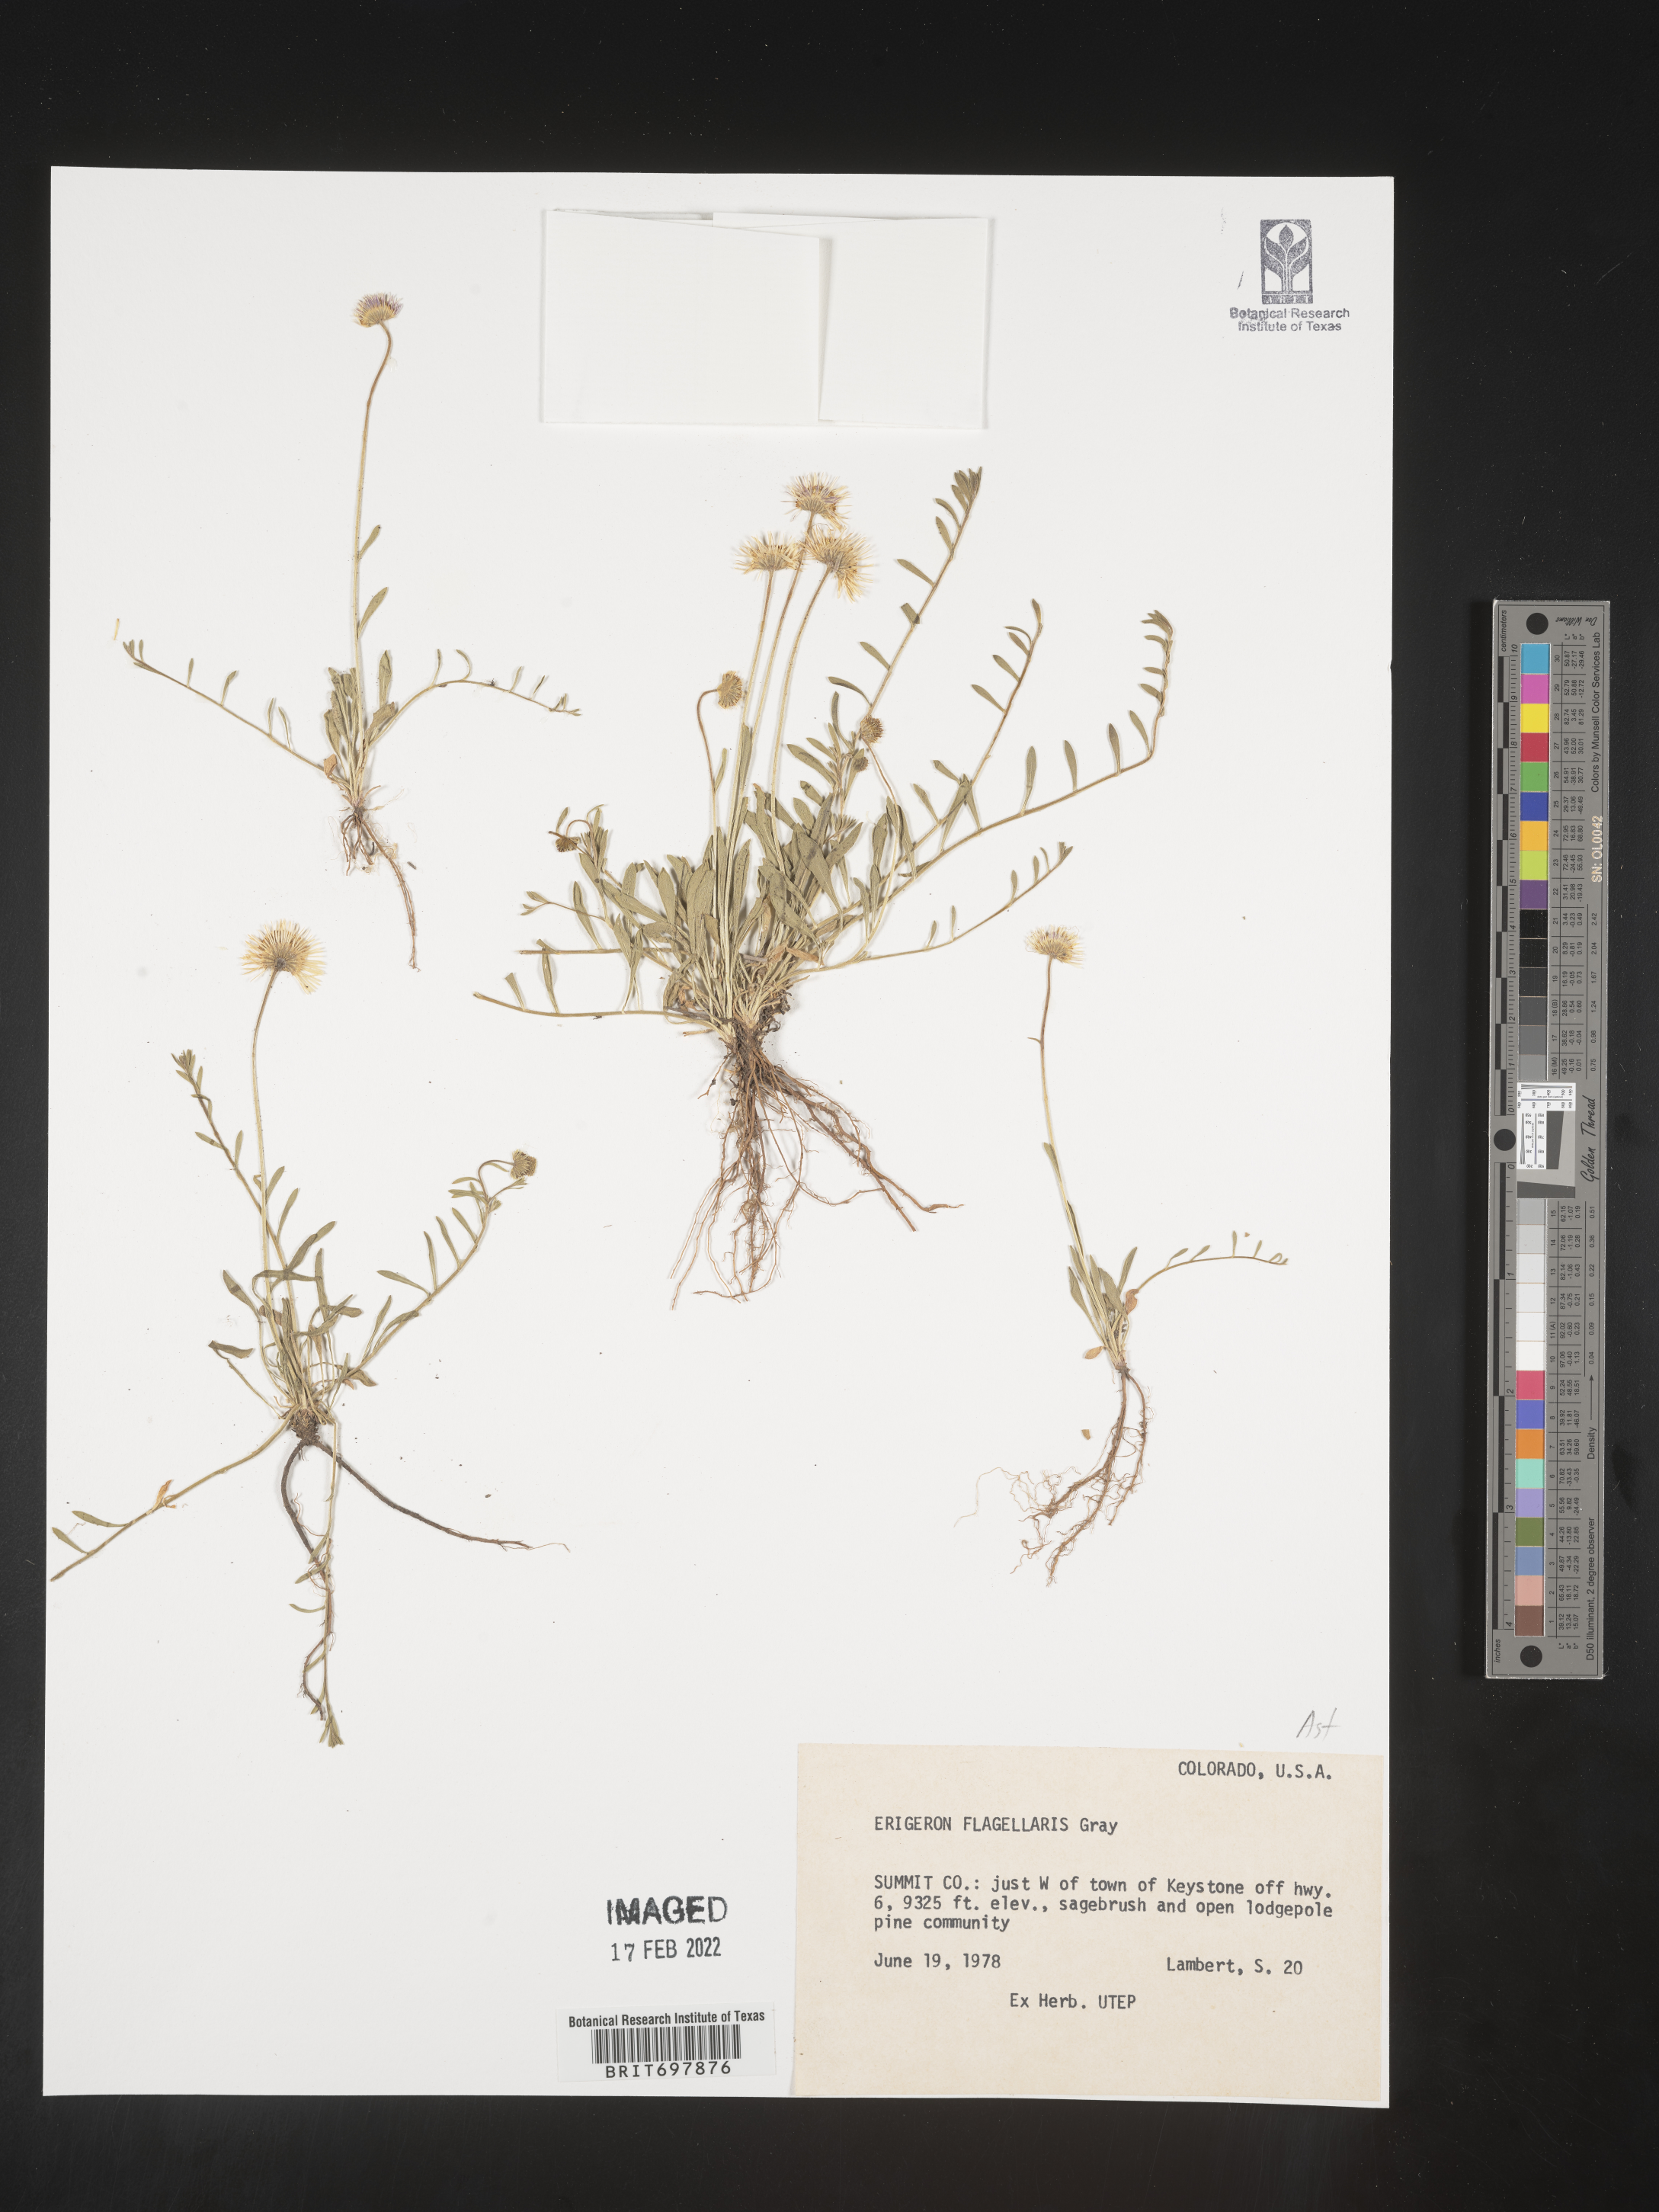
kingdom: Plantae
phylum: Tracheophyta
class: Magnoliopsida
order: Asterales
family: Asteraceae
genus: Erigeron
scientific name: Erigeron flagellaris
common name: Running fleabane
